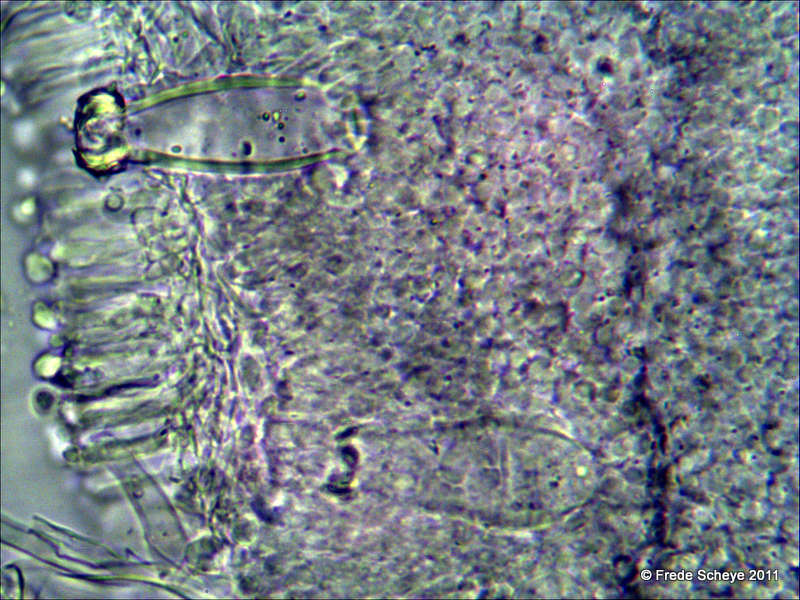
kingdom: Fungi
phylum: Basidiomycota
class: Agaricomycetes
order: Agaricales
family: Physalacriaceae
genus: Strobilurus
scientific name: Strobilurus esculentus
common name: gran-koglehat
